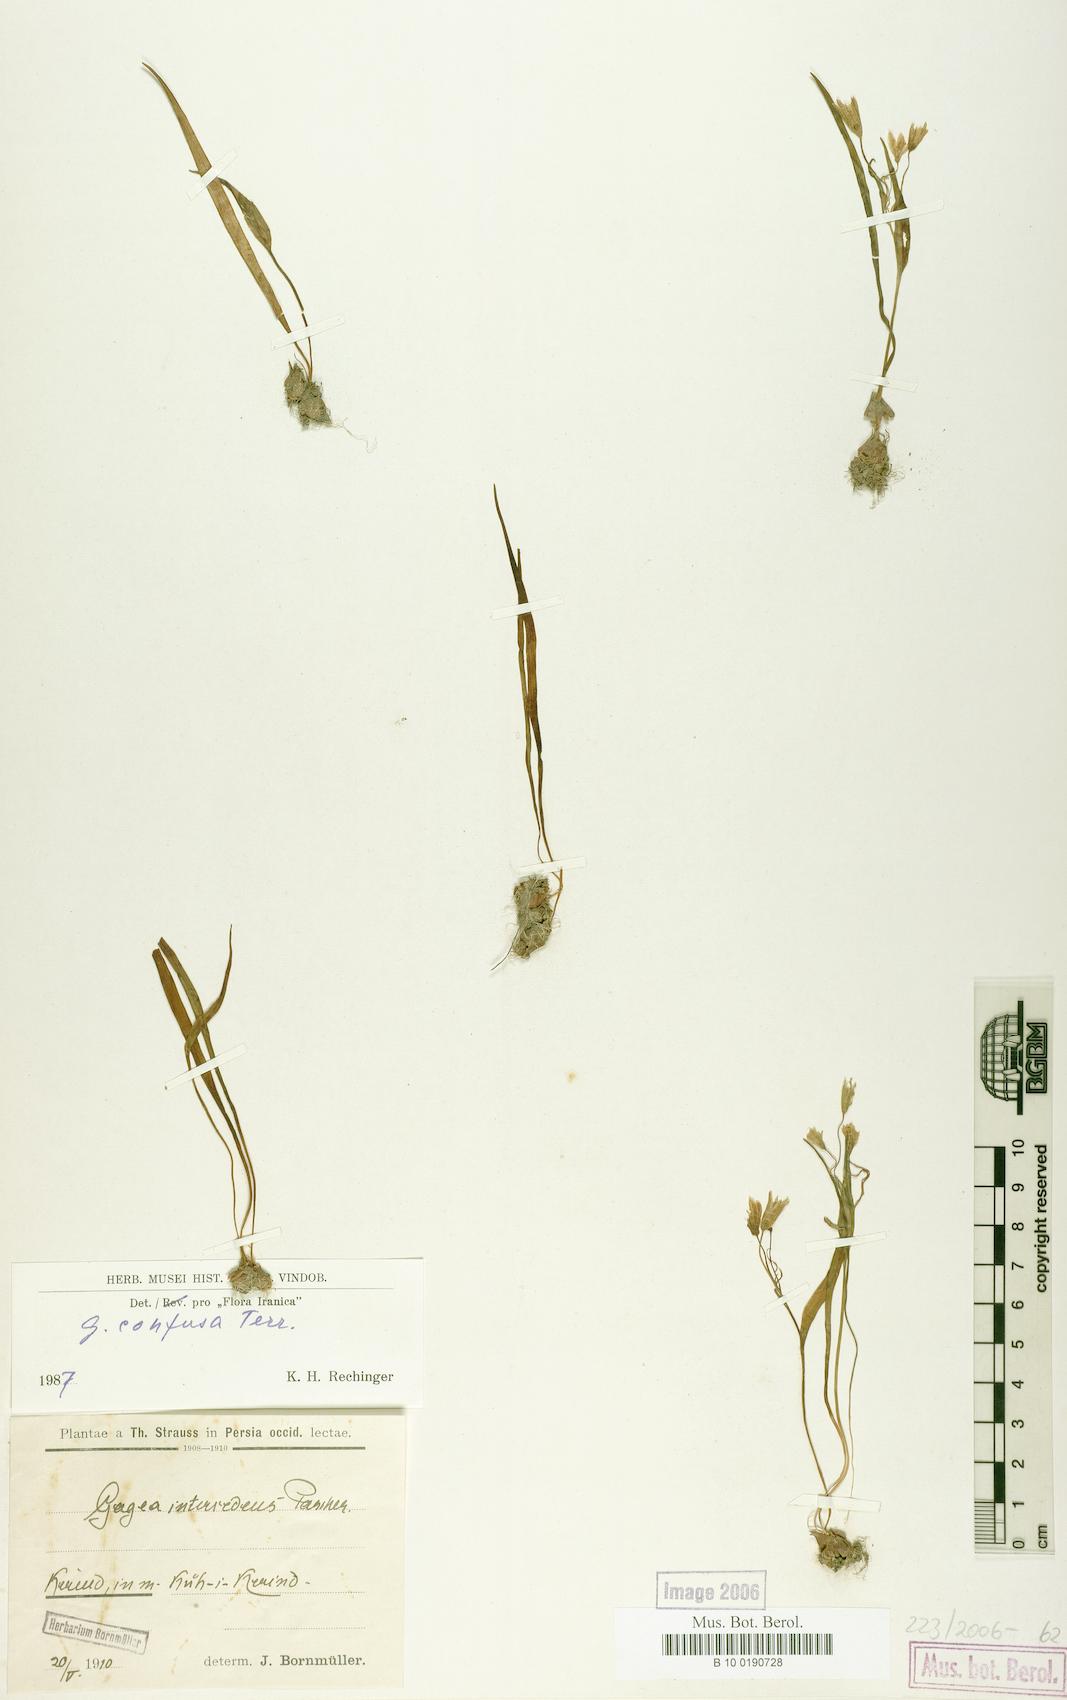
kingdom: Plantae
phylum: Tracheophyta
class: Liliopsida
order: Liliales
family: Liliaceae
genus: Gagea
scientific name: Gagea confusa
